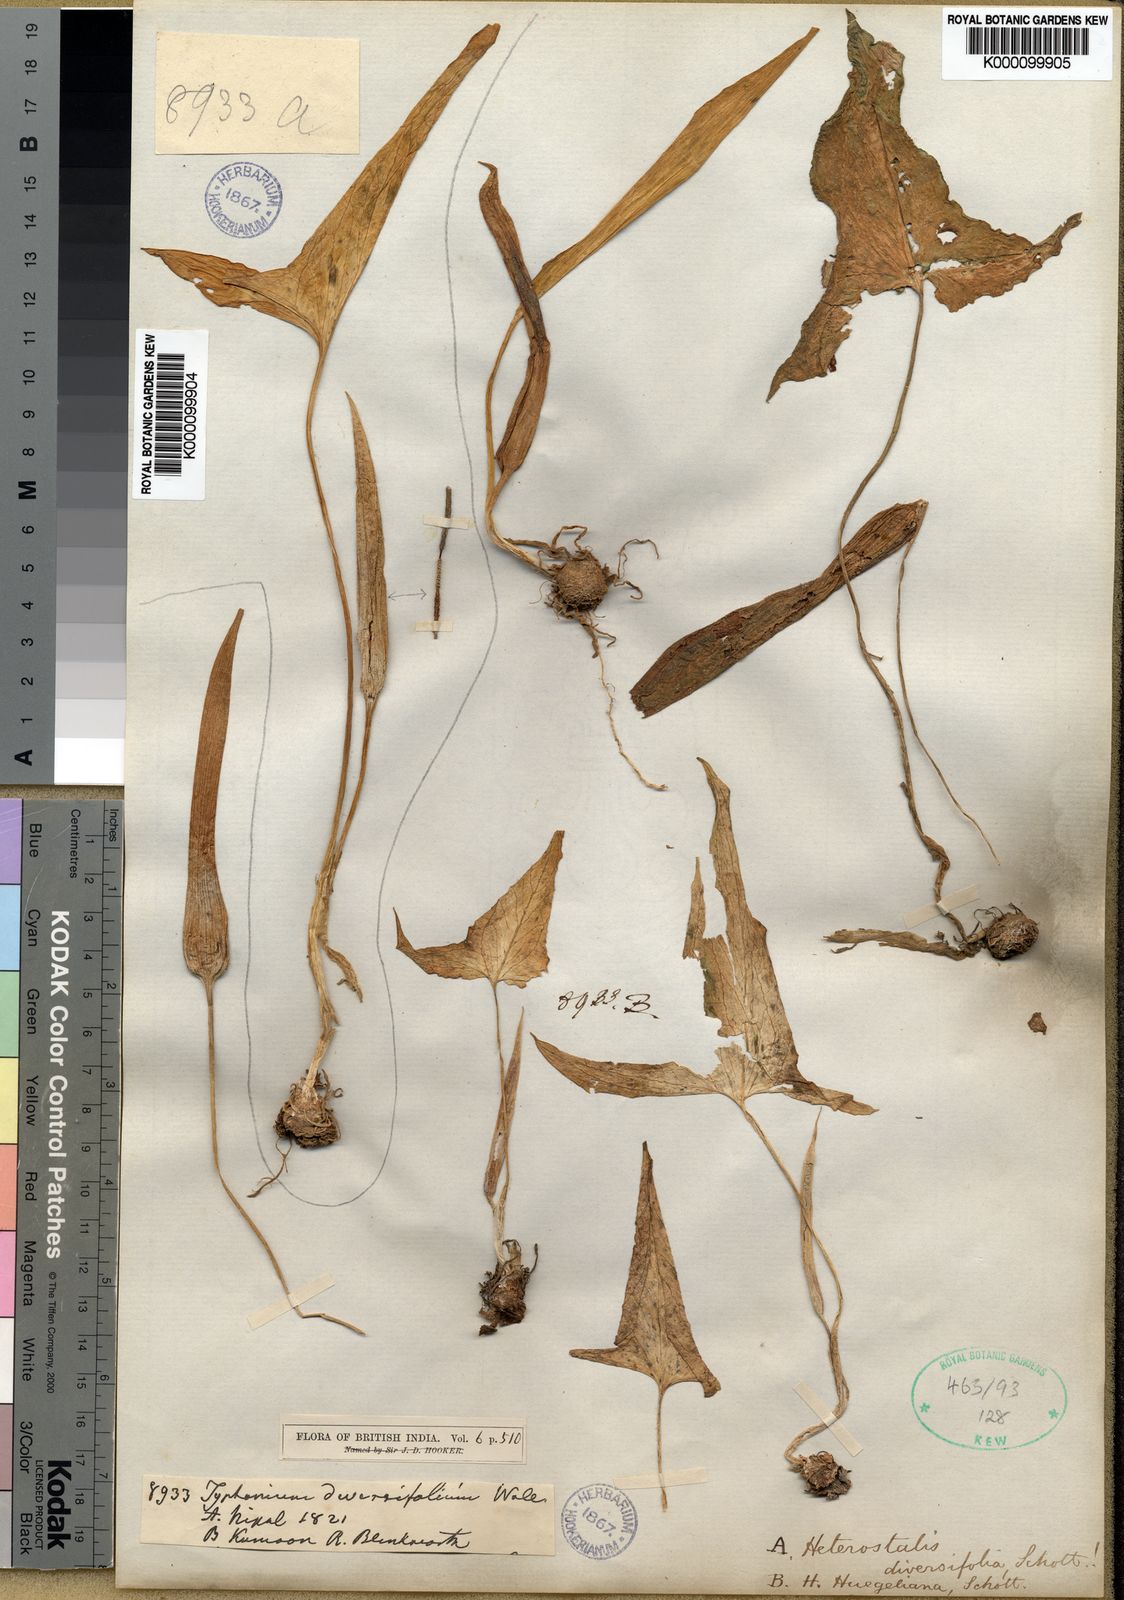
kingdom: Plantae
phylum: Tracheophyta
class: Liliopsida
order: Alismatales
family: Araceae
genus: Typhonium
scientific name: Typhonium
